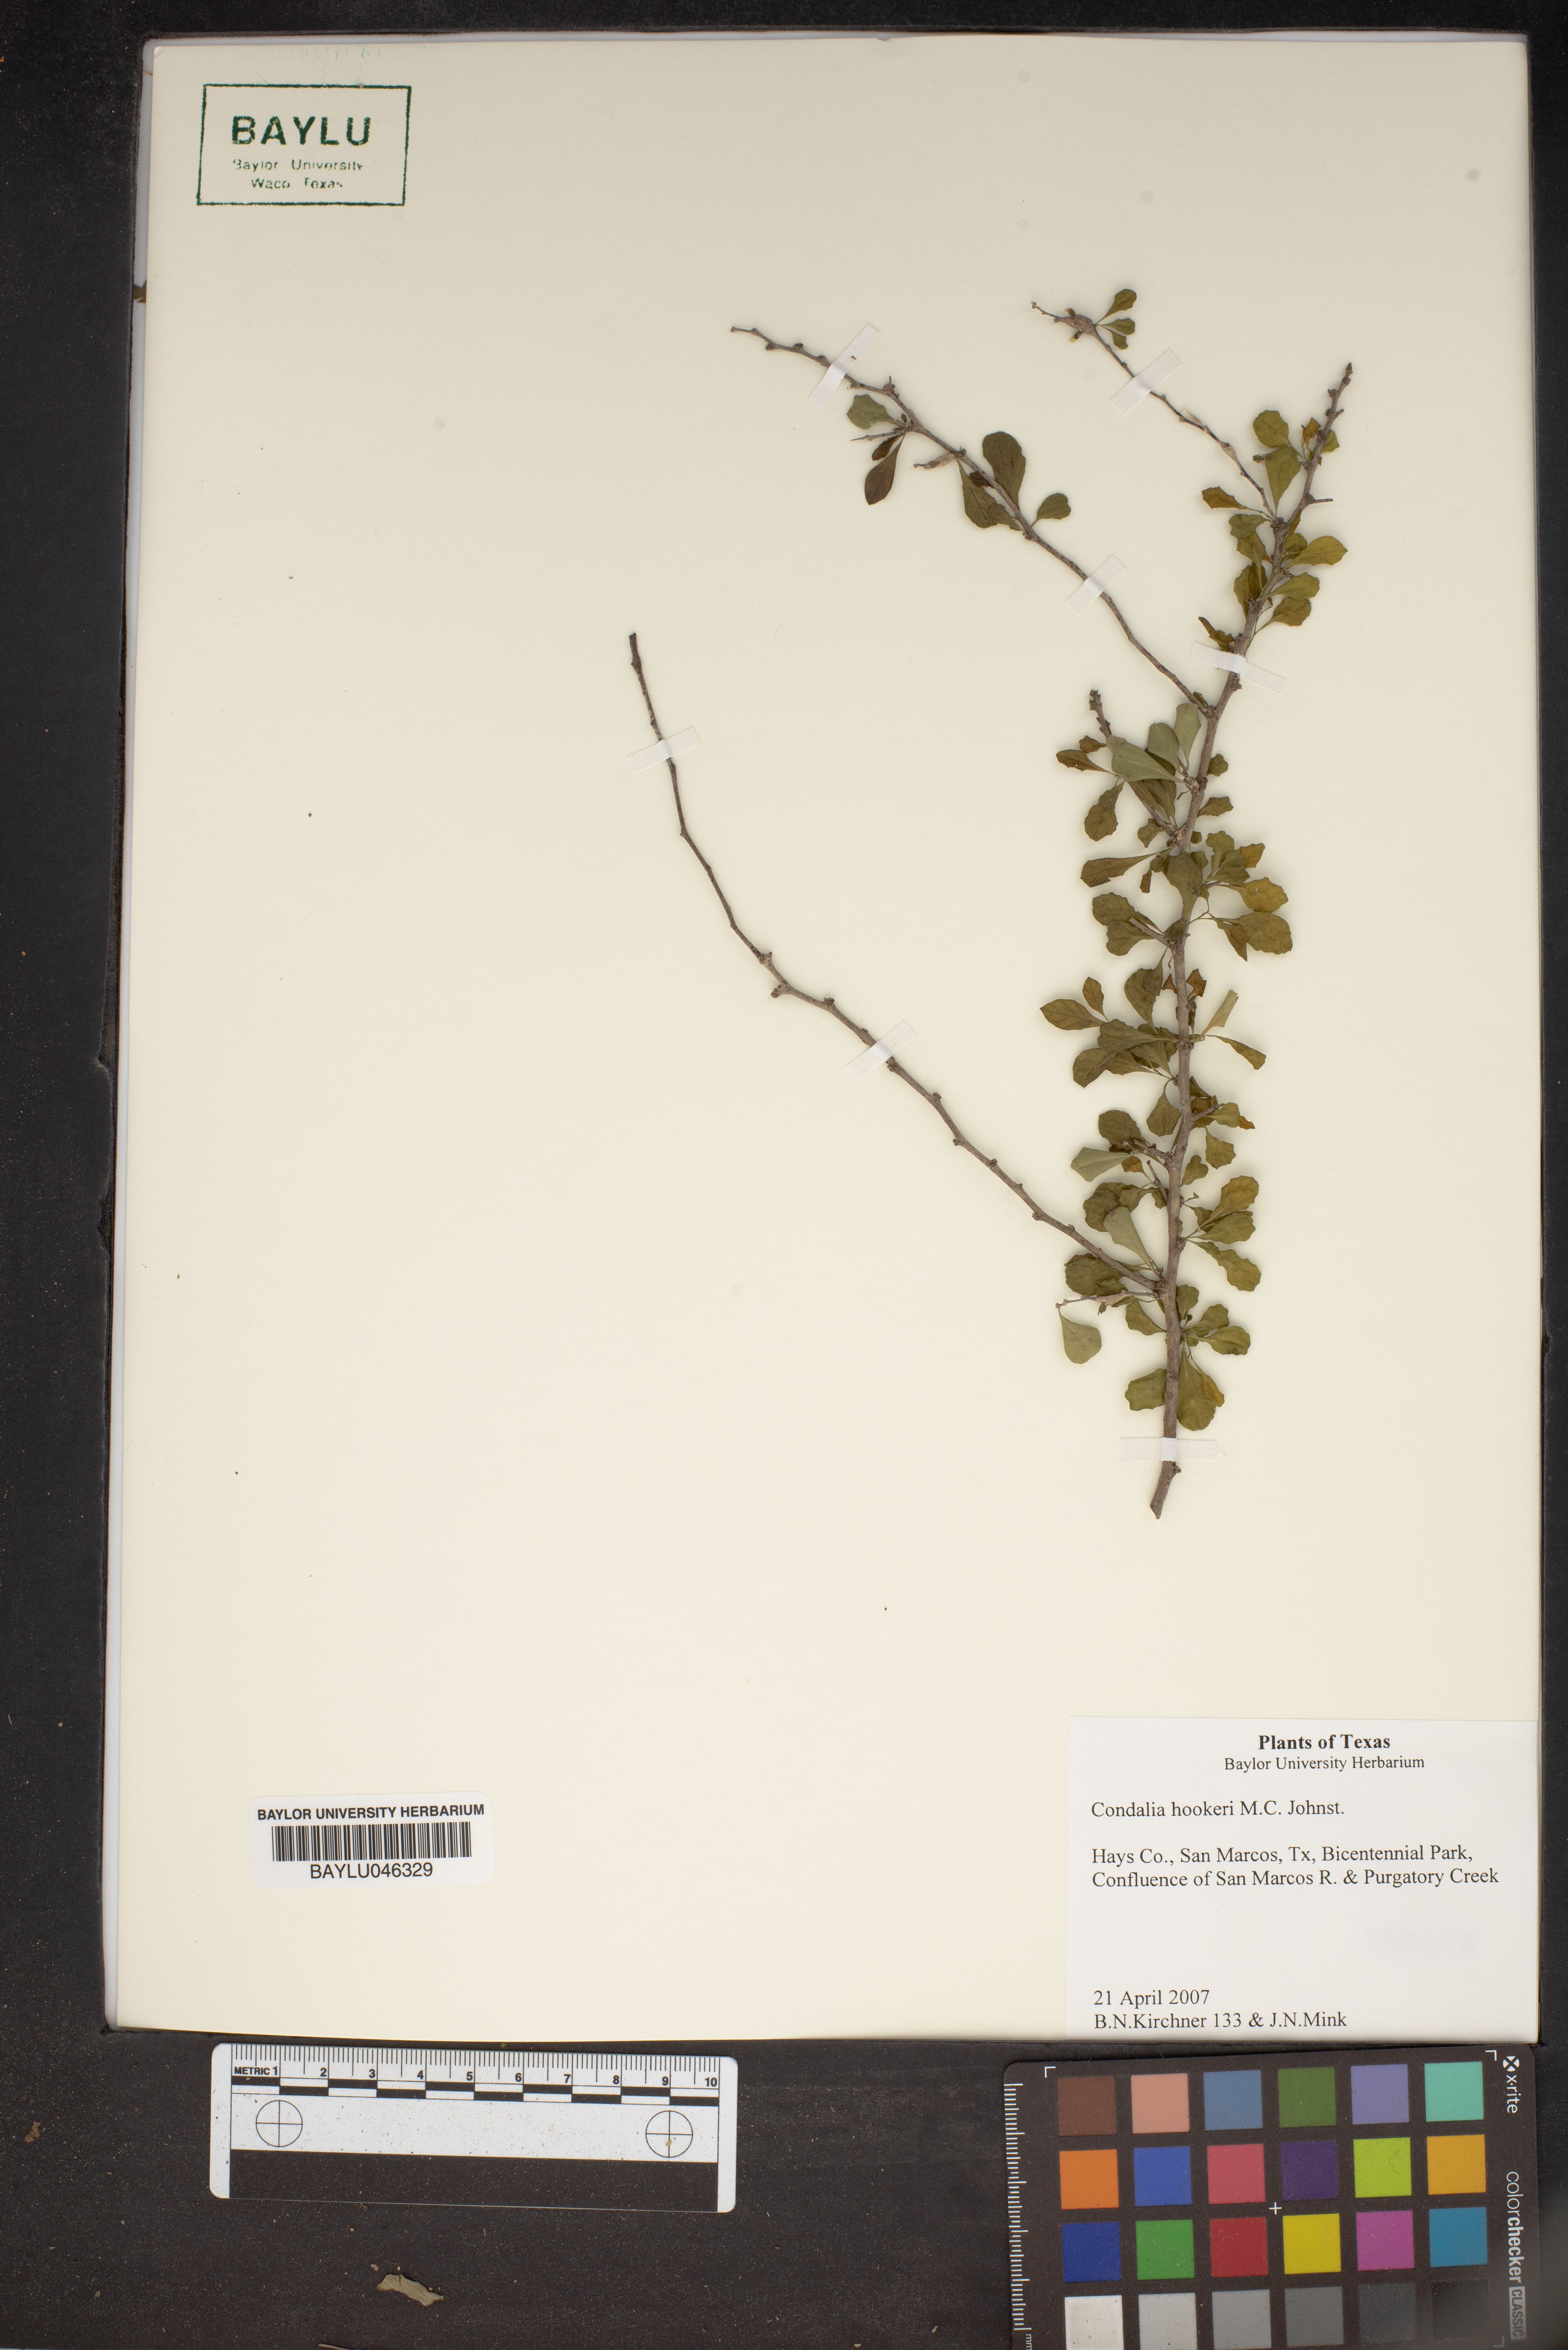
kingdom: Plantae
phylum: Tracheophyta
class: Magnoliopsida
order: Rosales
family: Rhamnaceae
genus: Condalia
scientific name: Condalia hookeri
